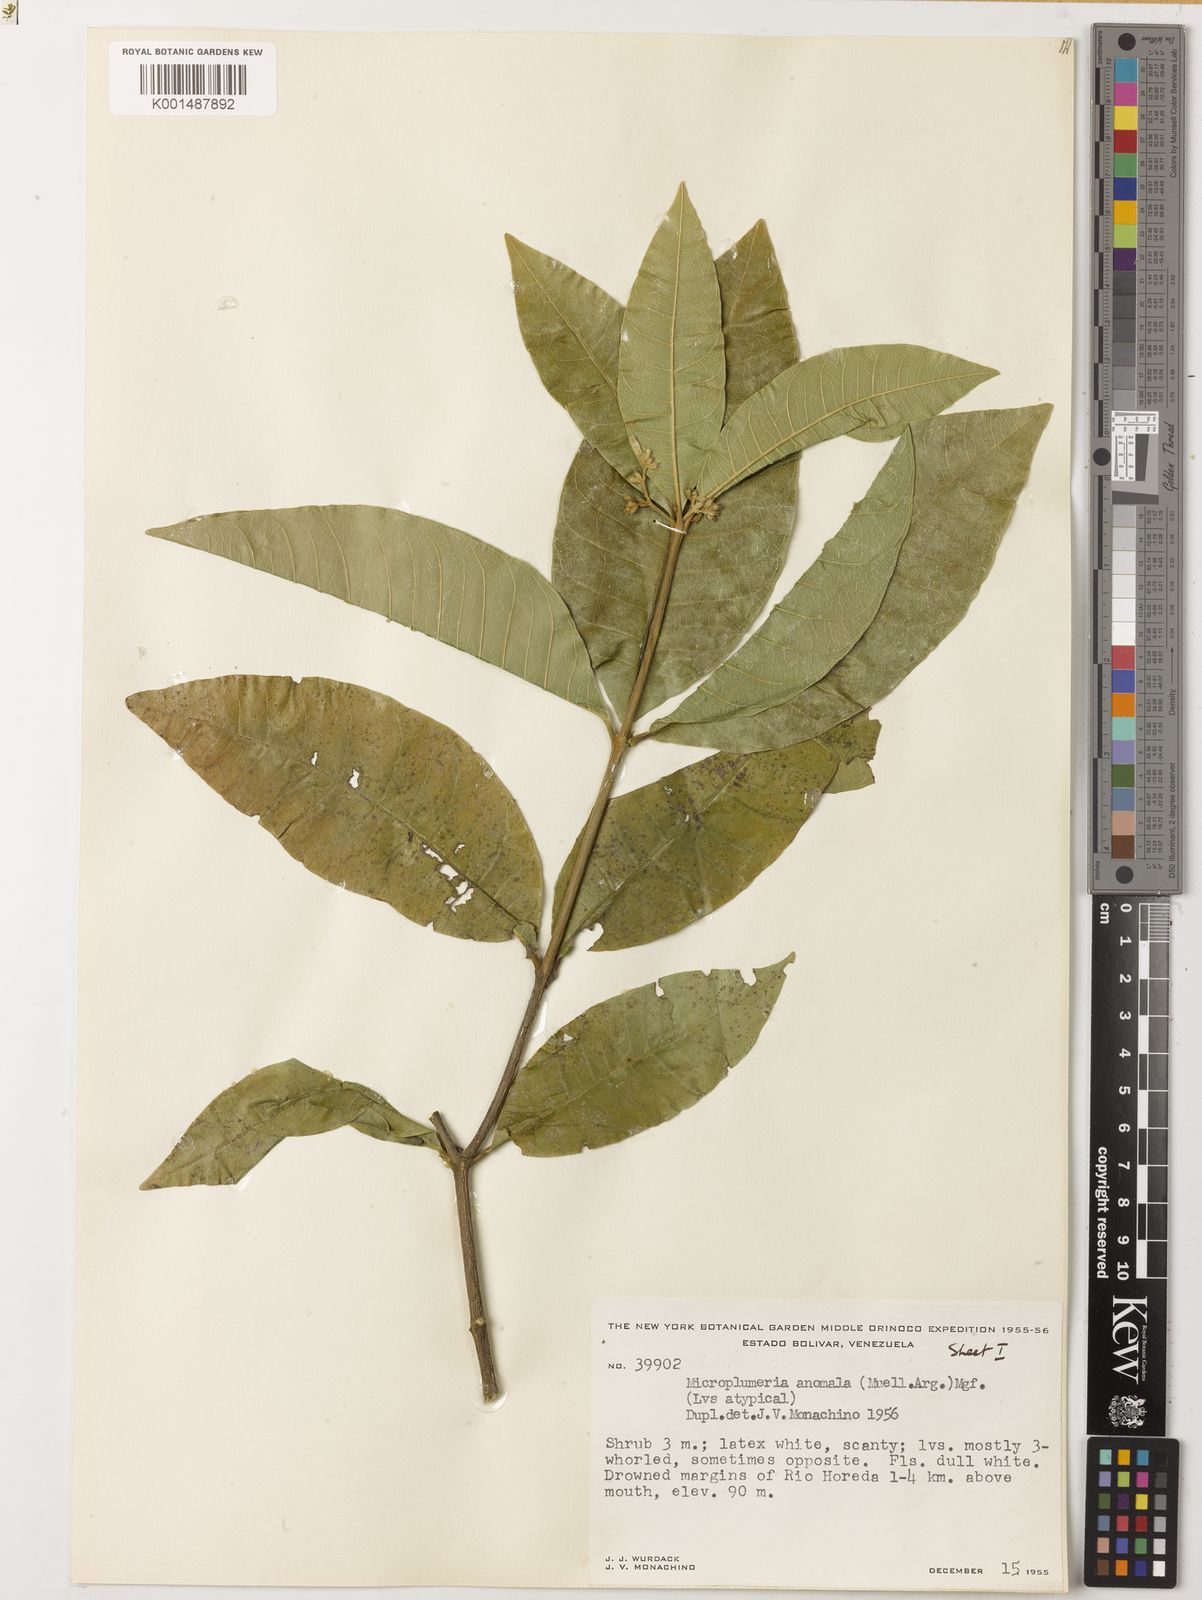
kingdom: Plantae
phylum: Tracheophyta
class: Magnoliopsida
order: Gentianales
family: Apocynaceae
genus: Microplumeria
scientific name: Microplumeria anomala
